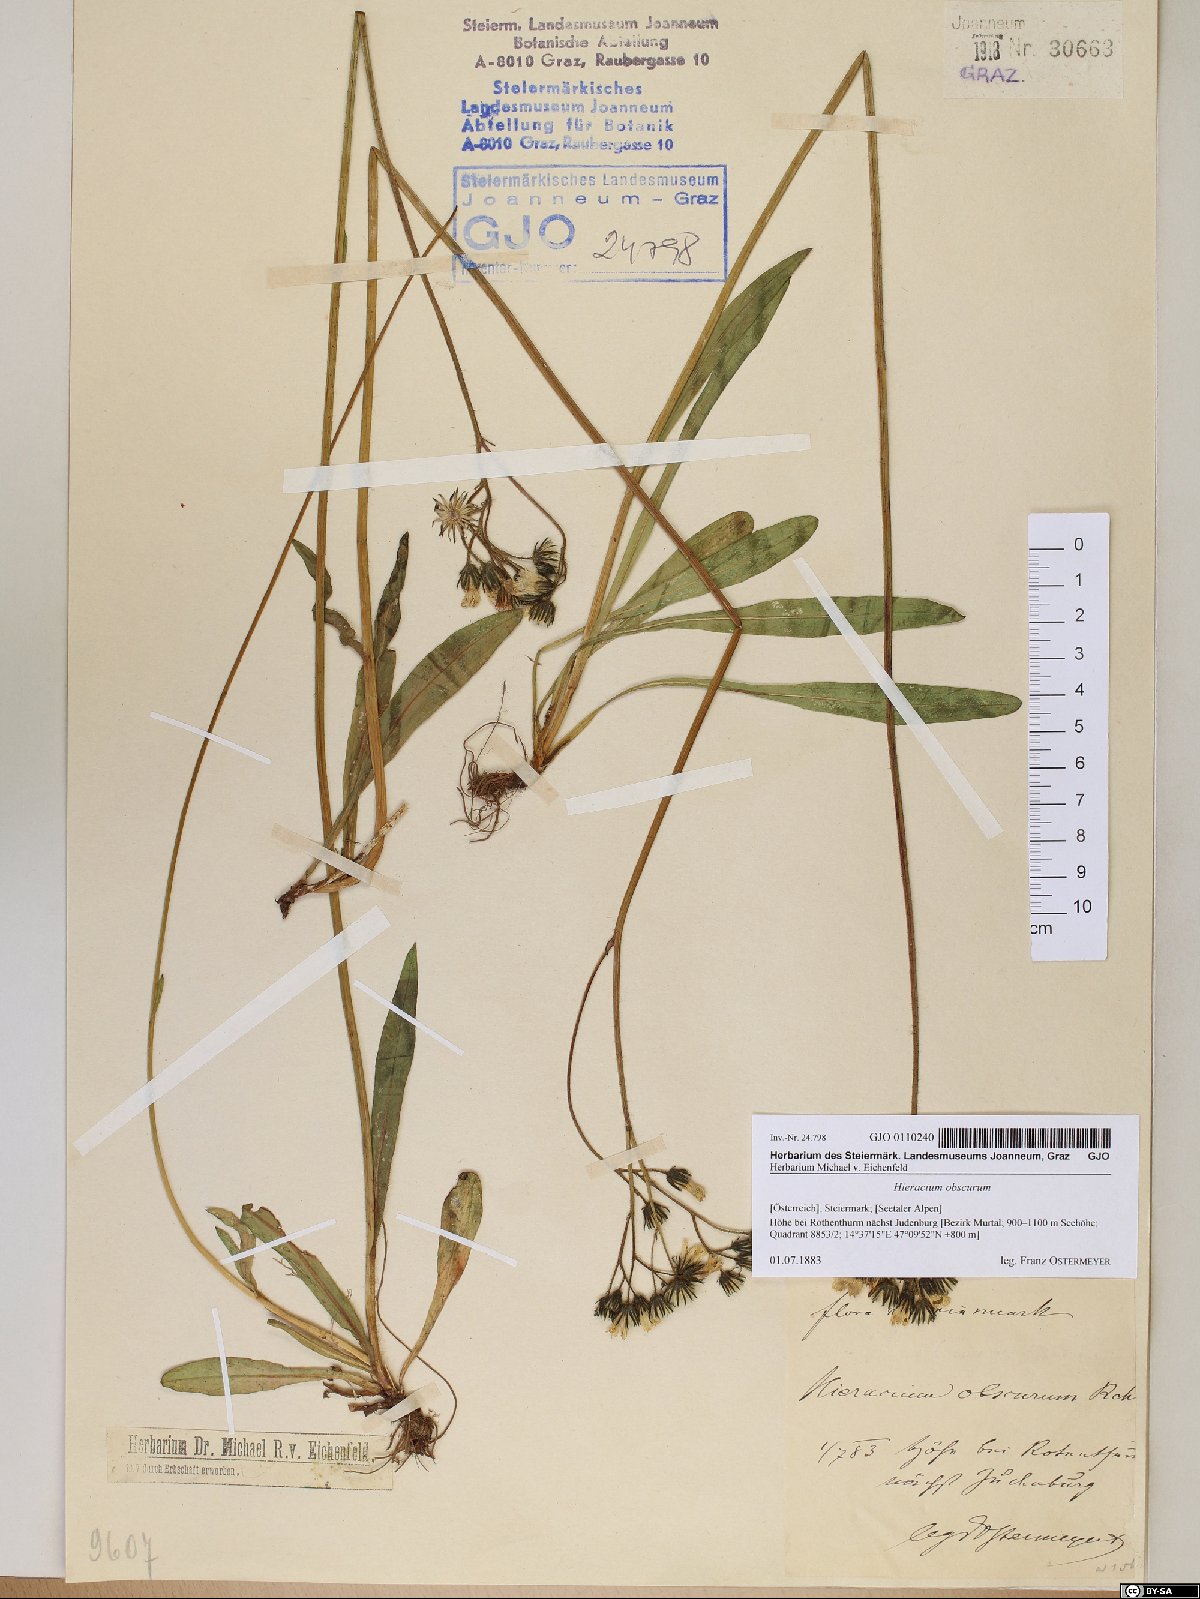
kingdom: Plantae
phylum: Tracheophyta
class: Magnoliopsida
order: Asterales
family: Asteraceae
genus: Pilosella
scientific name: Pilosella piloselloides
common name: Glaucous king-devil
